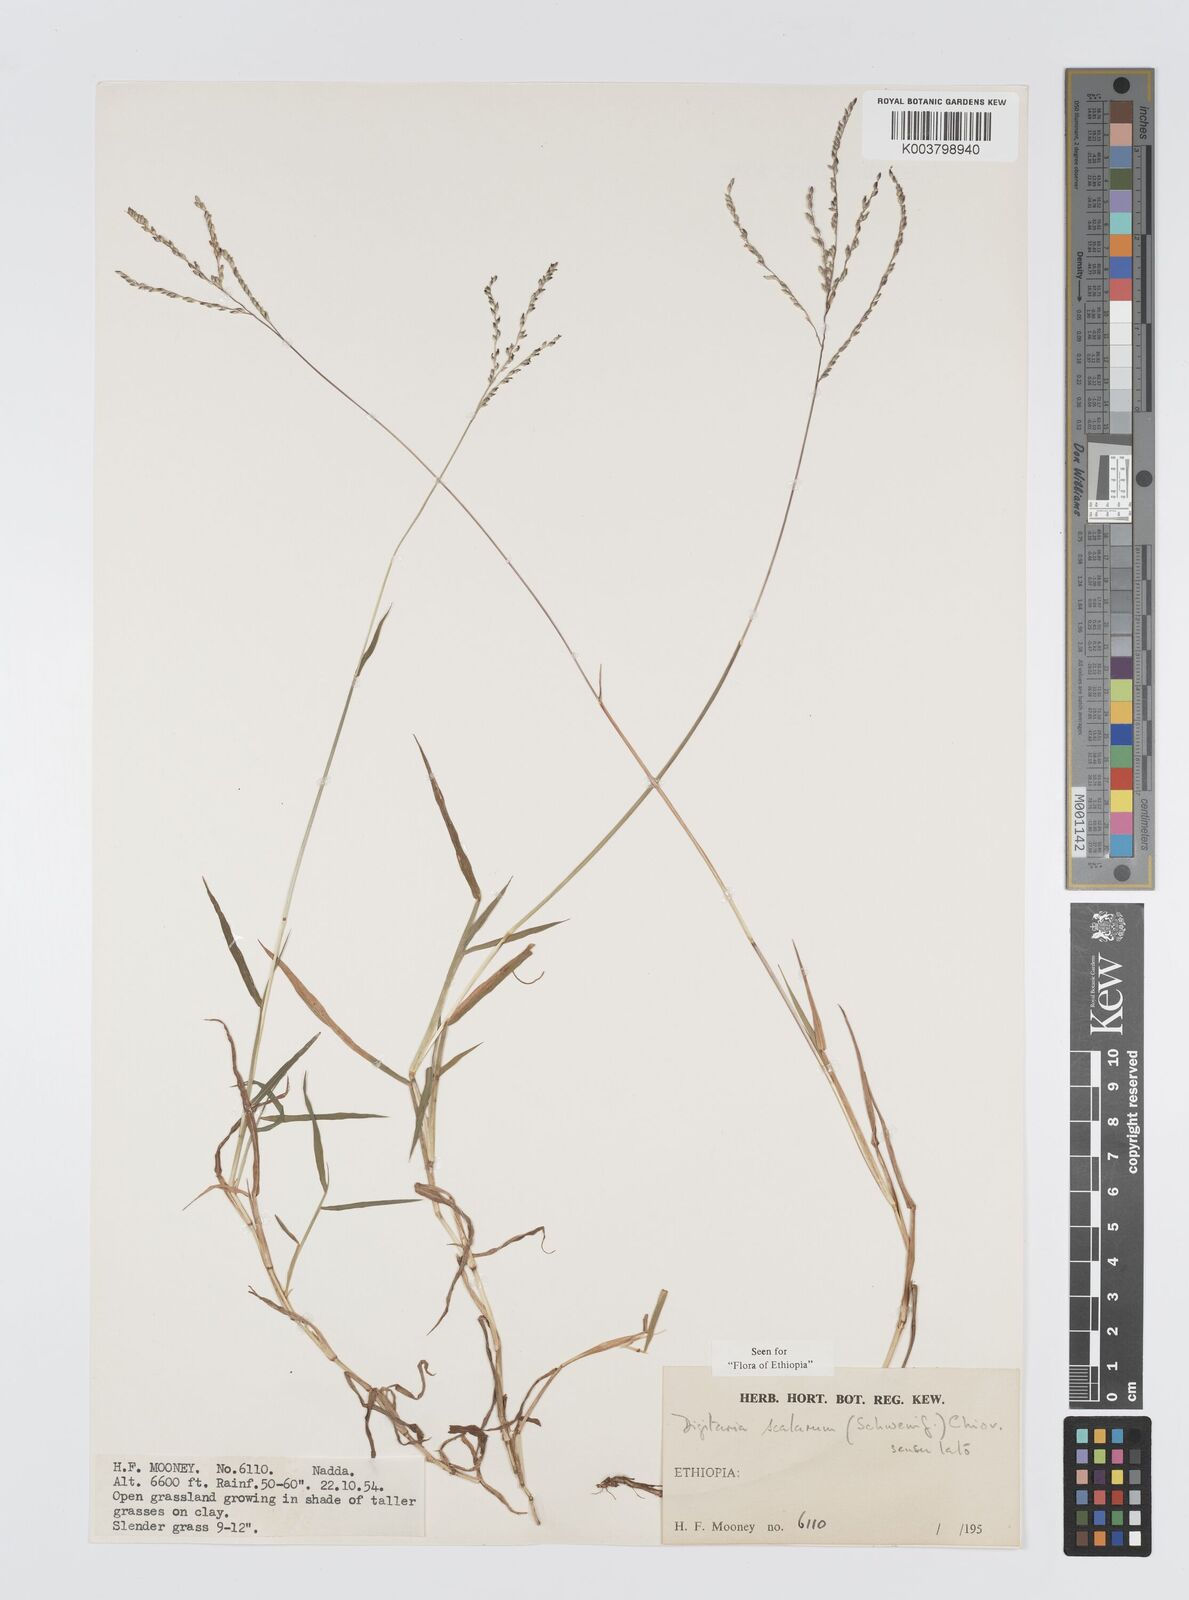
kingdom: Plantae
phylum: Tracheophyta
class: Liliopsida
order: Poales
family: Poaceae
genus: Digitaria
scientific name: Digitaria abyssinica
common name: African couchgrass
